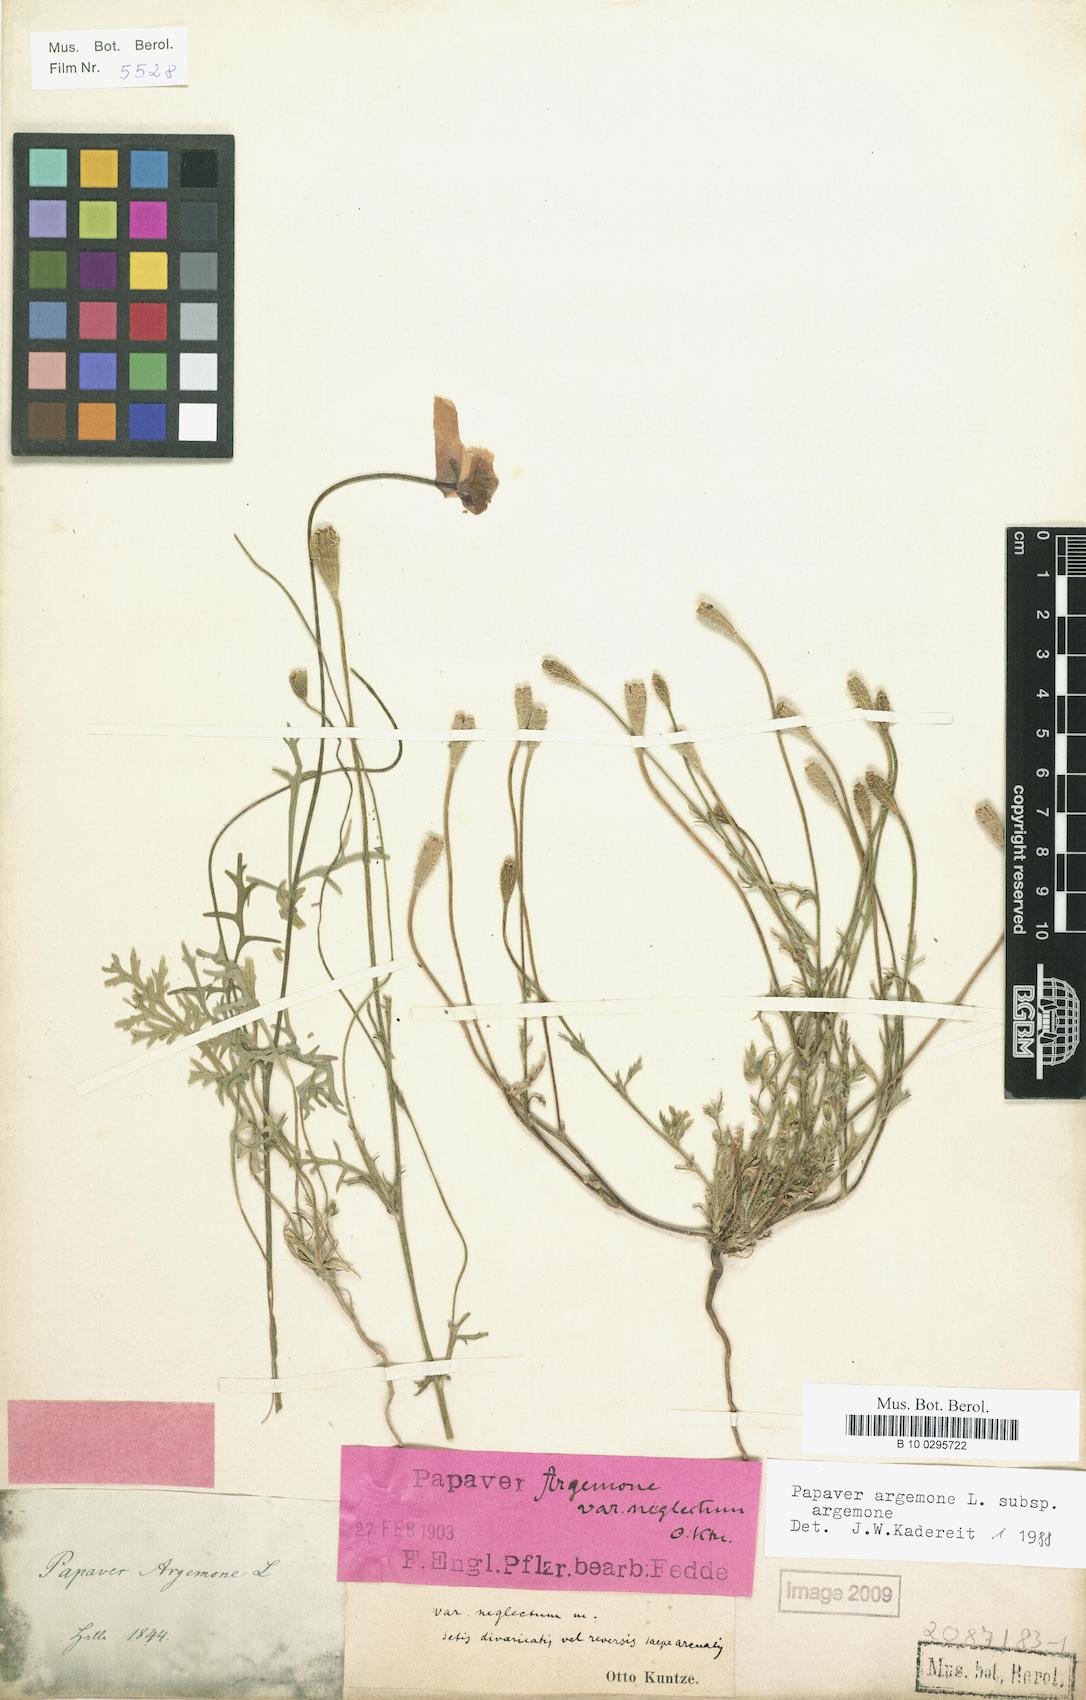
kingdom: Plantae
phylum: Tracheophyta
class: Magnoliopsida
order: Ranunculales
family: Papaveraceae
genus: Roemeria
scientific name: Roemeria argemone
